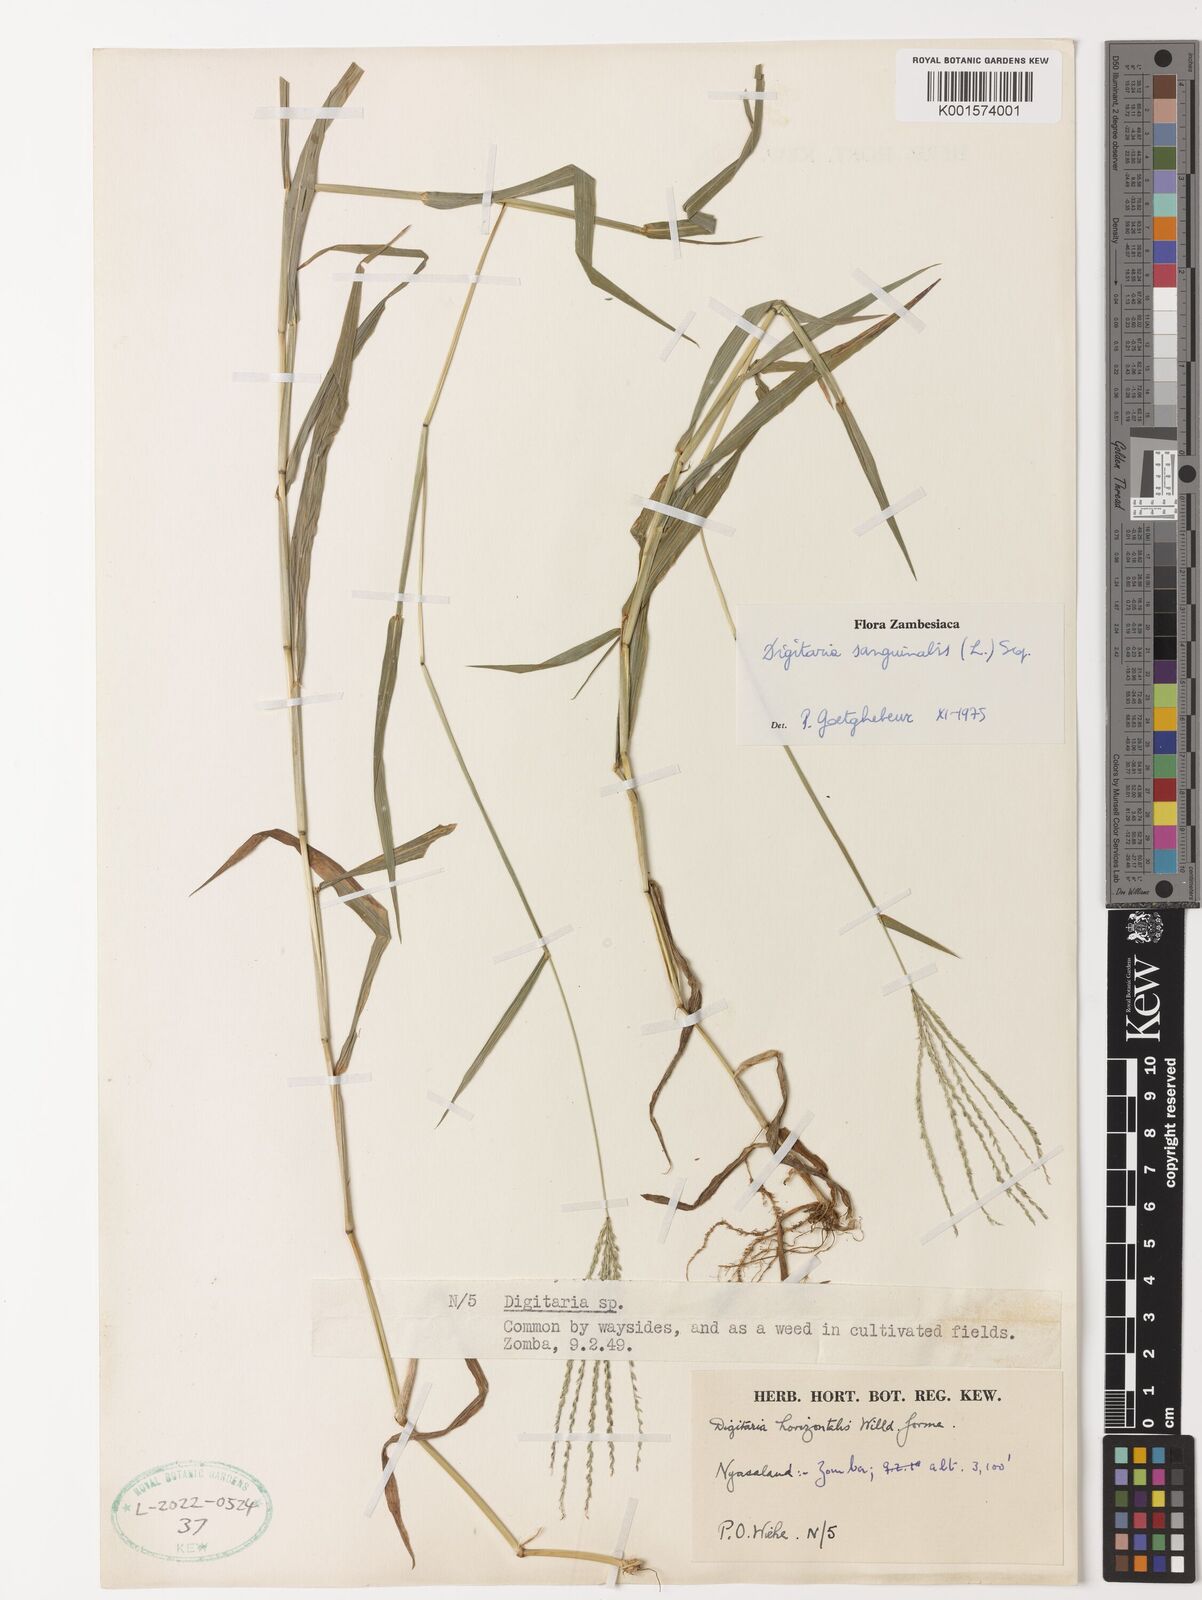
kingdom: Plantae
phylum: Tracheophyta
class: Liliopsida
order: Poales
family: Poaceae
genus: Digitaria
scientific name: Digitaria sanguinalis
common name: Hairy crabgrass
